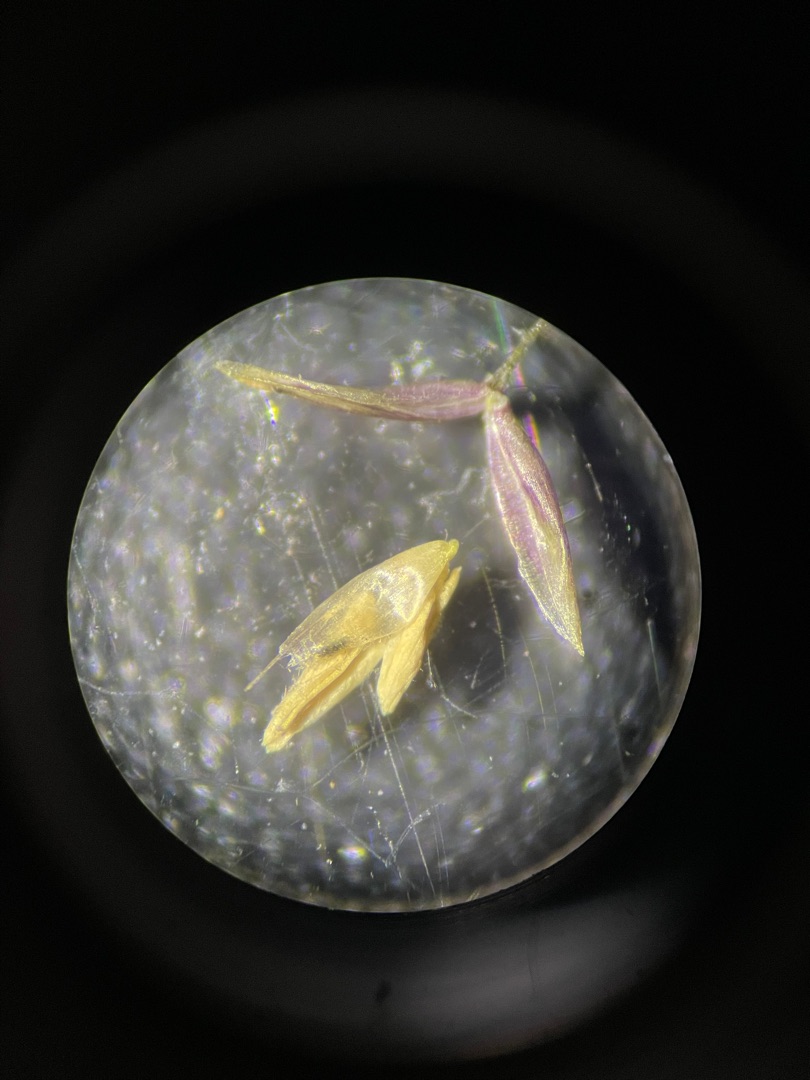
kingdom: Plantae
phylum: Tracheophyta
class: Liliopsida
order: Poales
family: Poaceae
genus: Agrostis
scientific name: Agrostis
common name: Hveneslægten
